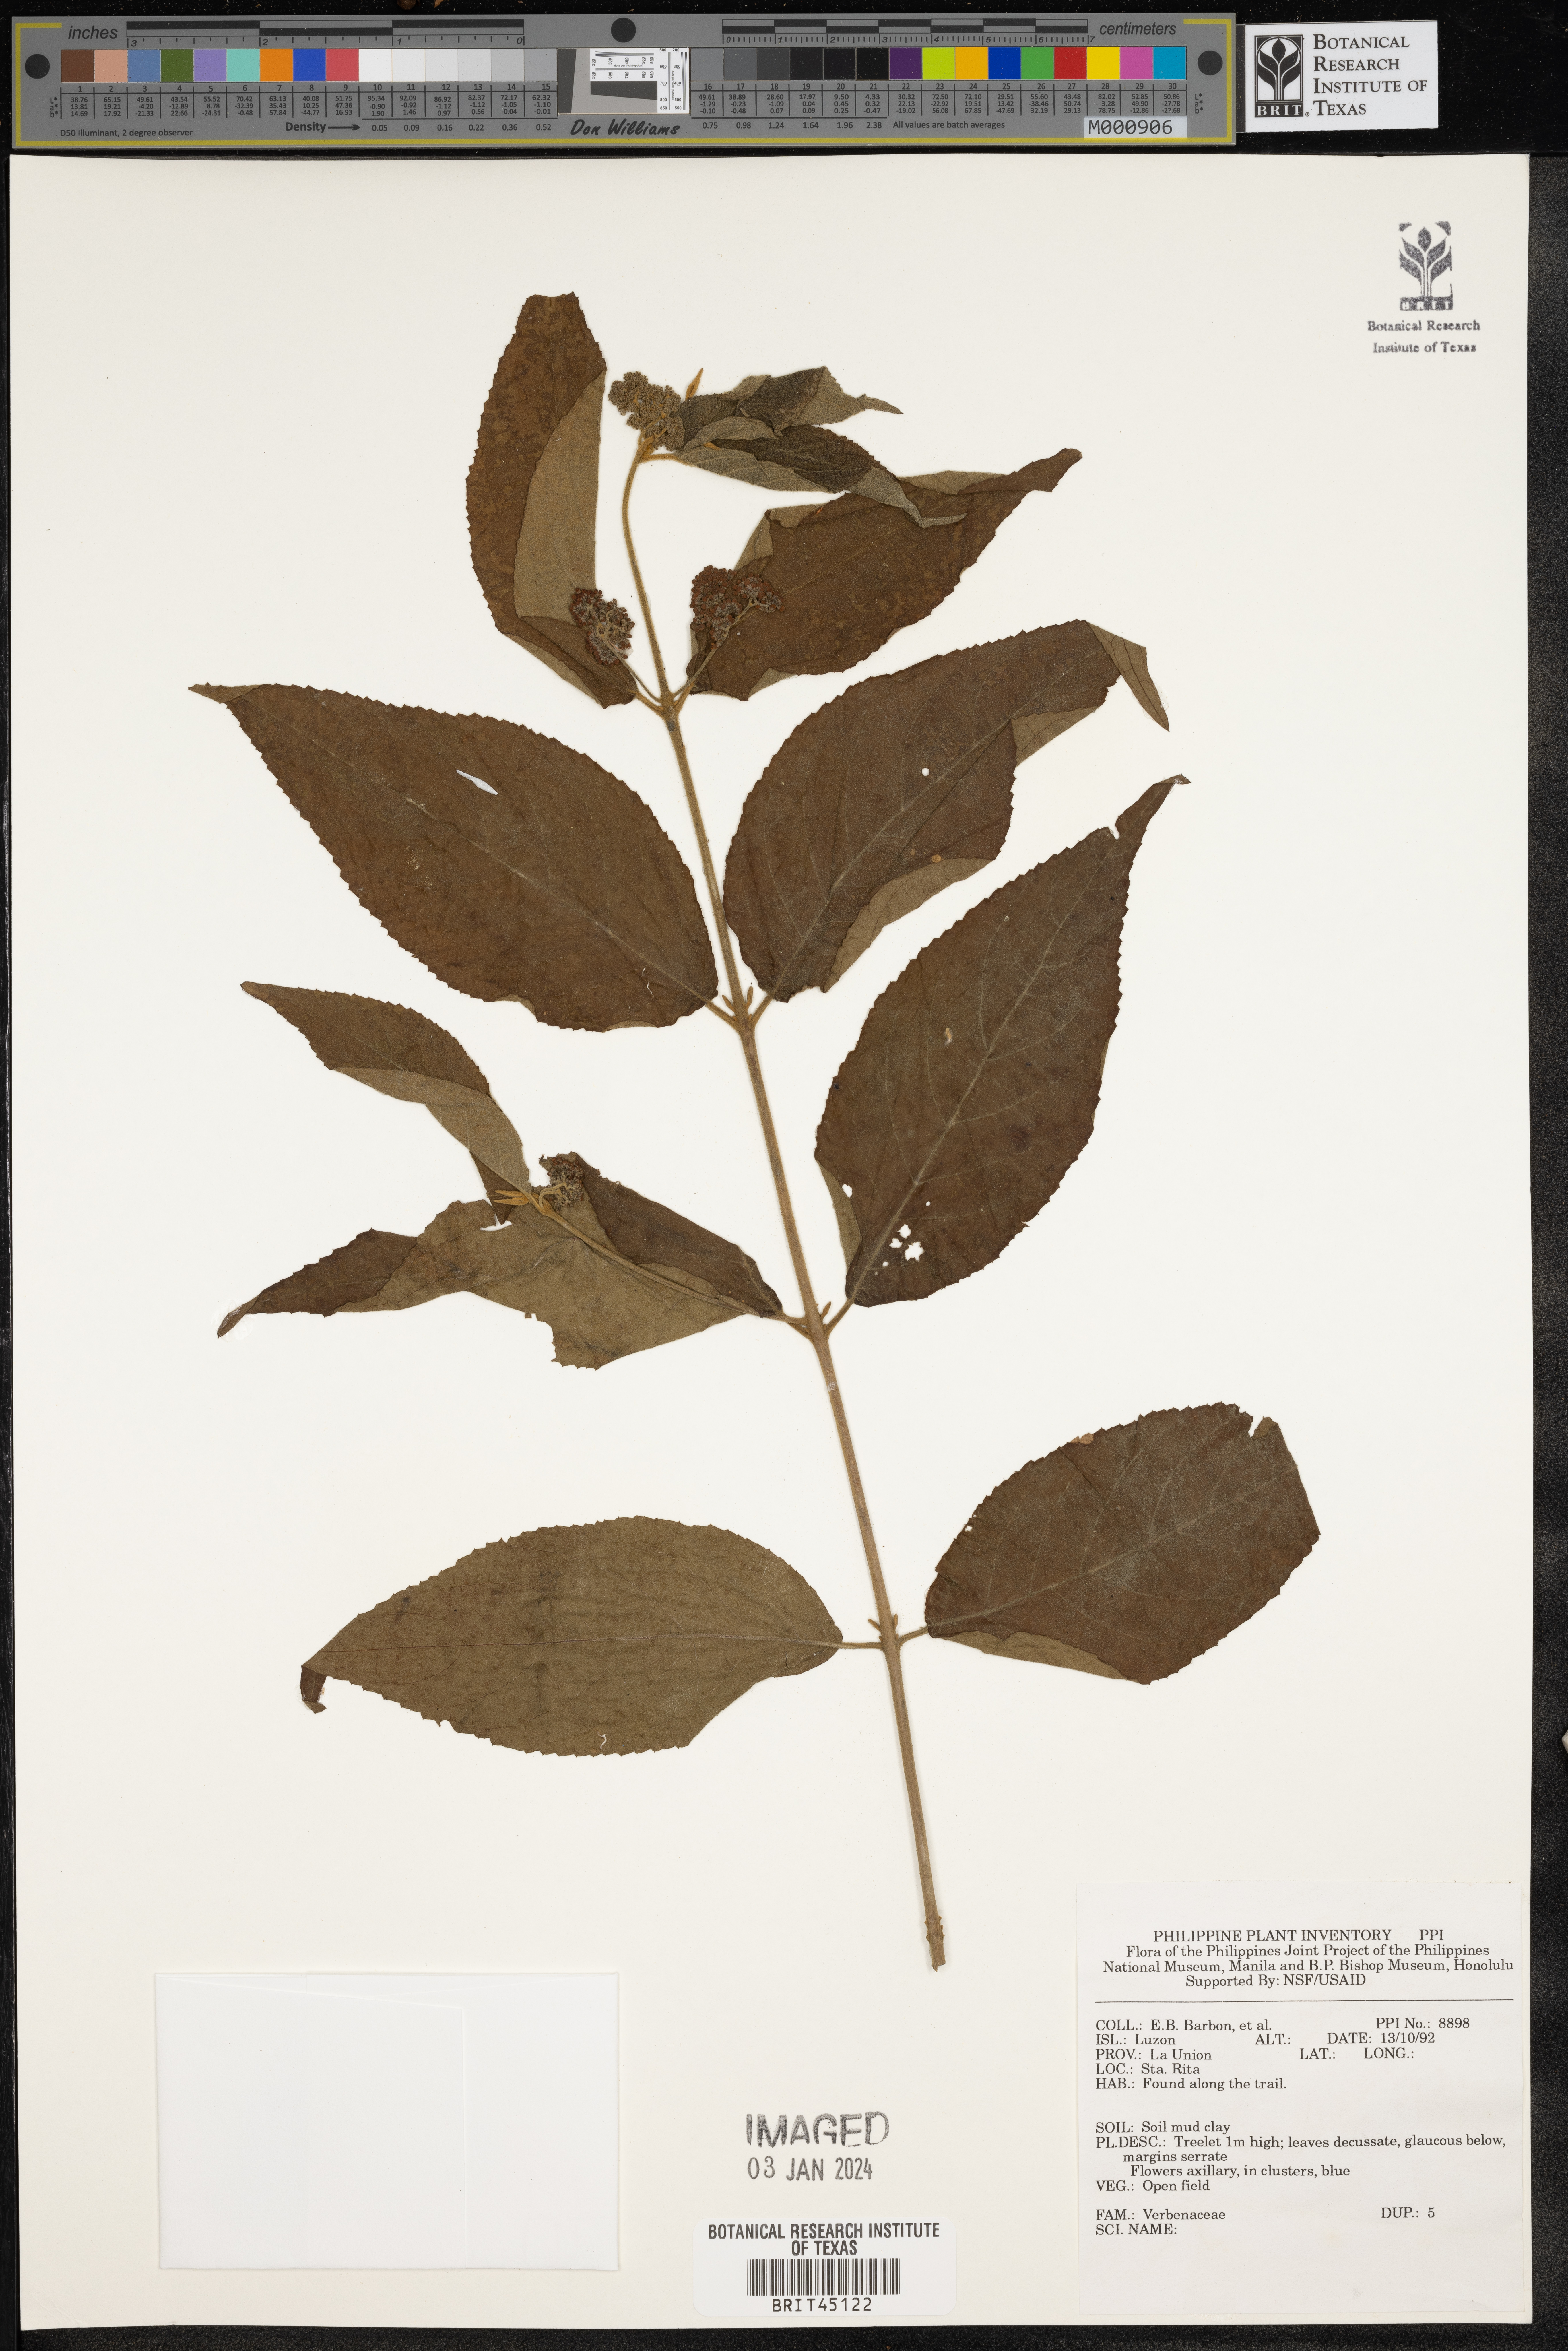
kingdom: Plantae
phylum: Tracheophyta
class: Magnoliopsida
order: Lamiales
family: Verbenaceae
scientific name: Verbenaceae
